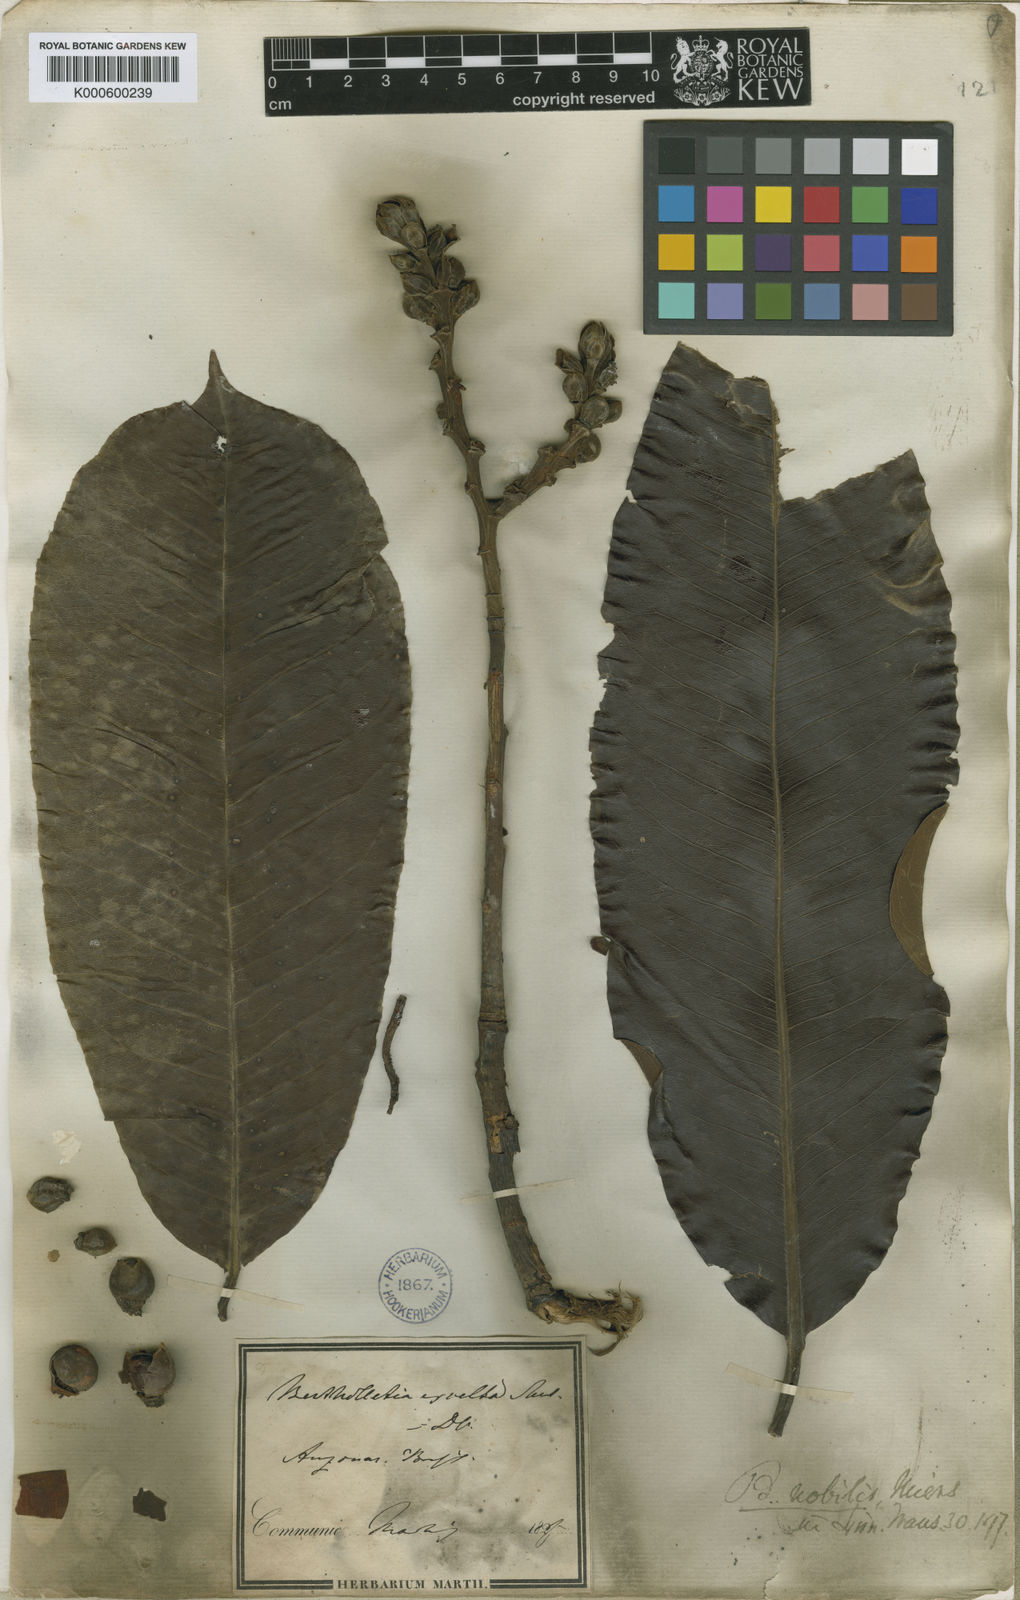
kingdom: Plantae
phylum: Tracheophyta
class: Magnoliopsida
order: Ericales
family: Lecythidaceae
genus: Bertholletia
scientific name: Bertholletia excelsa
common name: Brazil-nut tree
